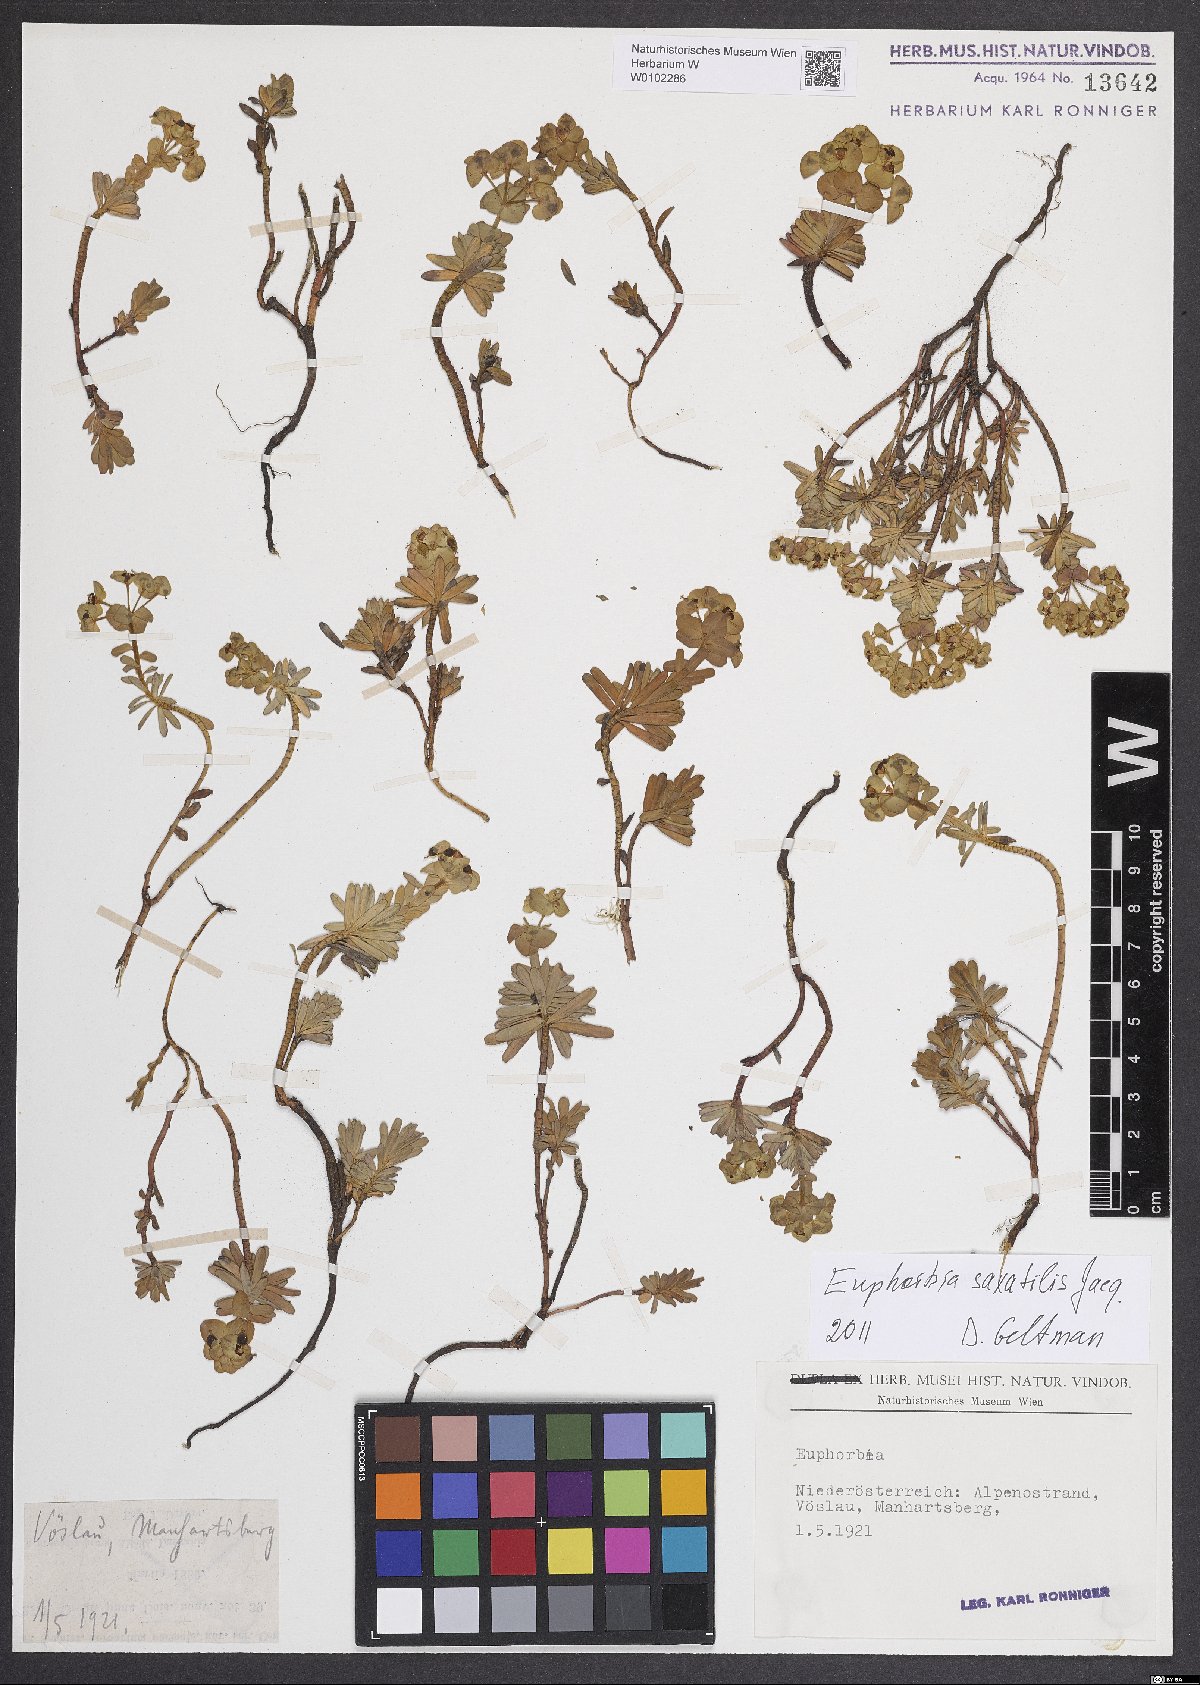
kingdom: Plantae
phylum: Tracheophyta
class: Magnoliopsida
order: Malpighiales
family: Euphorbiaceae
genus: Euphorbia
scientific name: Euphorbia saxatilis
